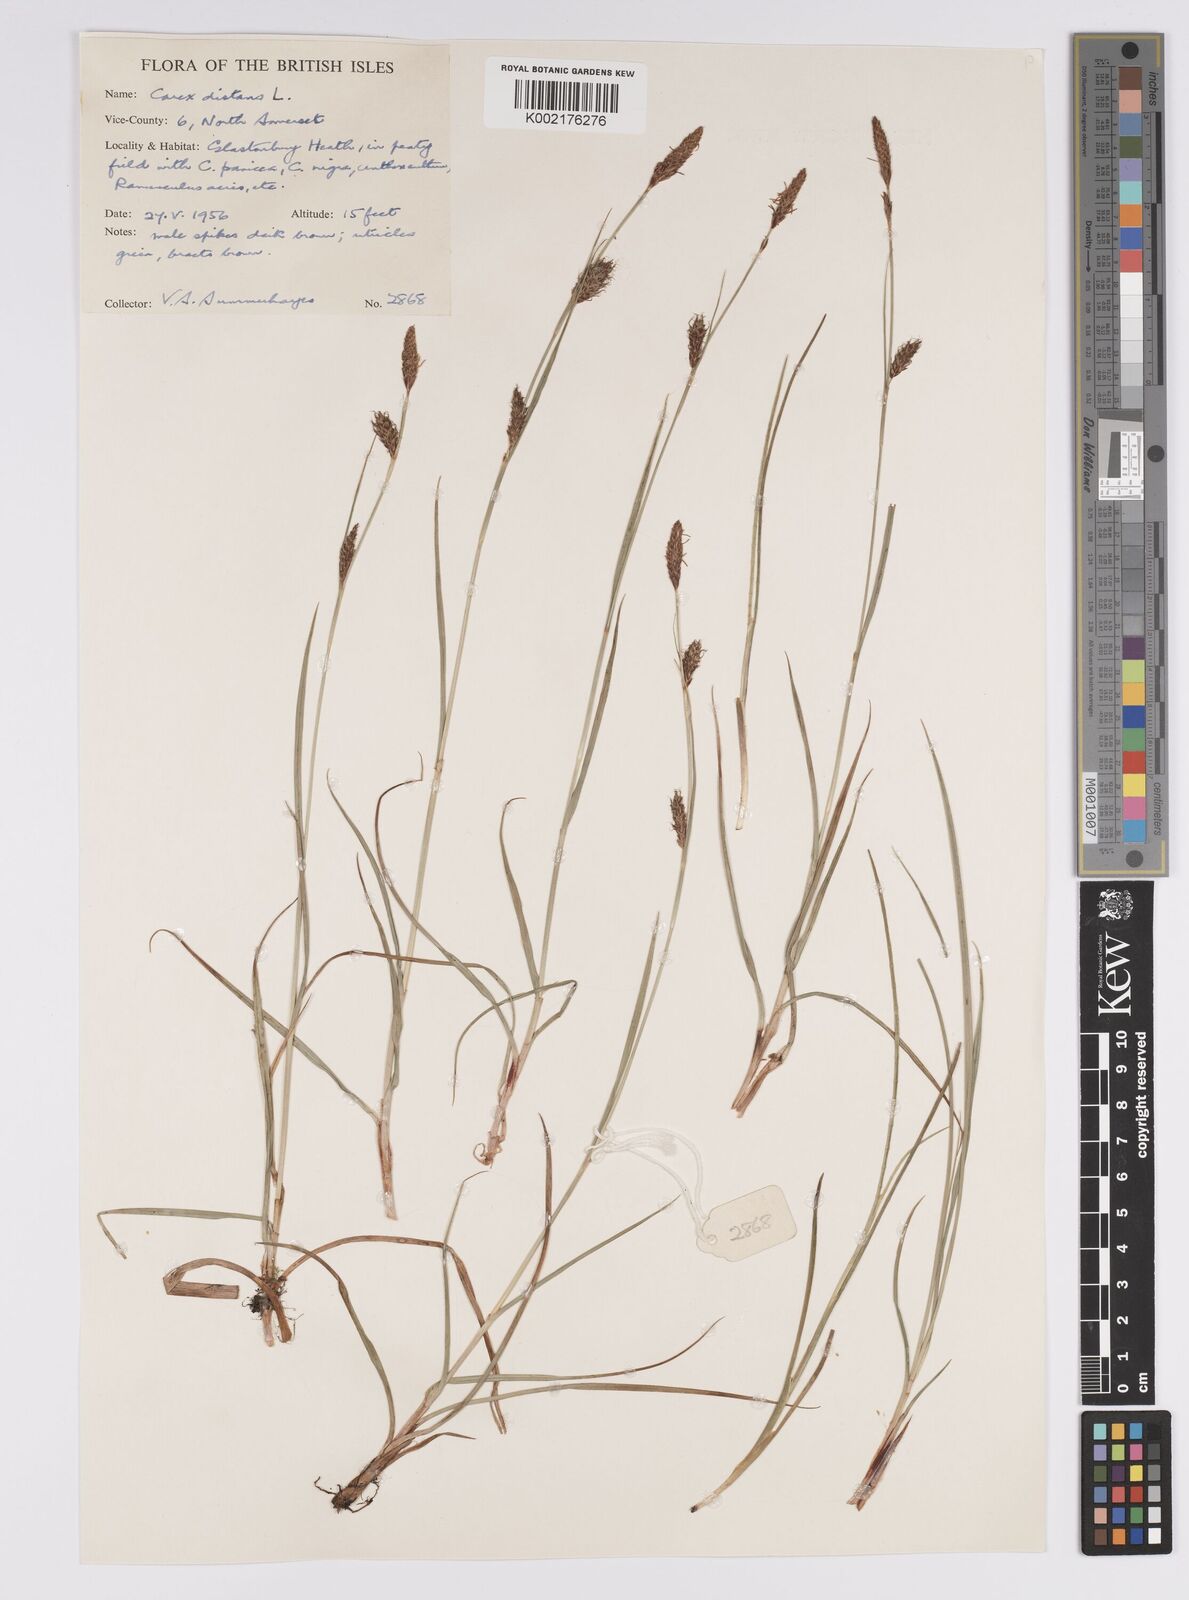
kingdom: Plantae
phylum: Tracheophyta
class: Liliopsida
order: Poales
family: Cyperaceae
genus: Carex
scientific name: Carex distans
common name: Distant sedge
